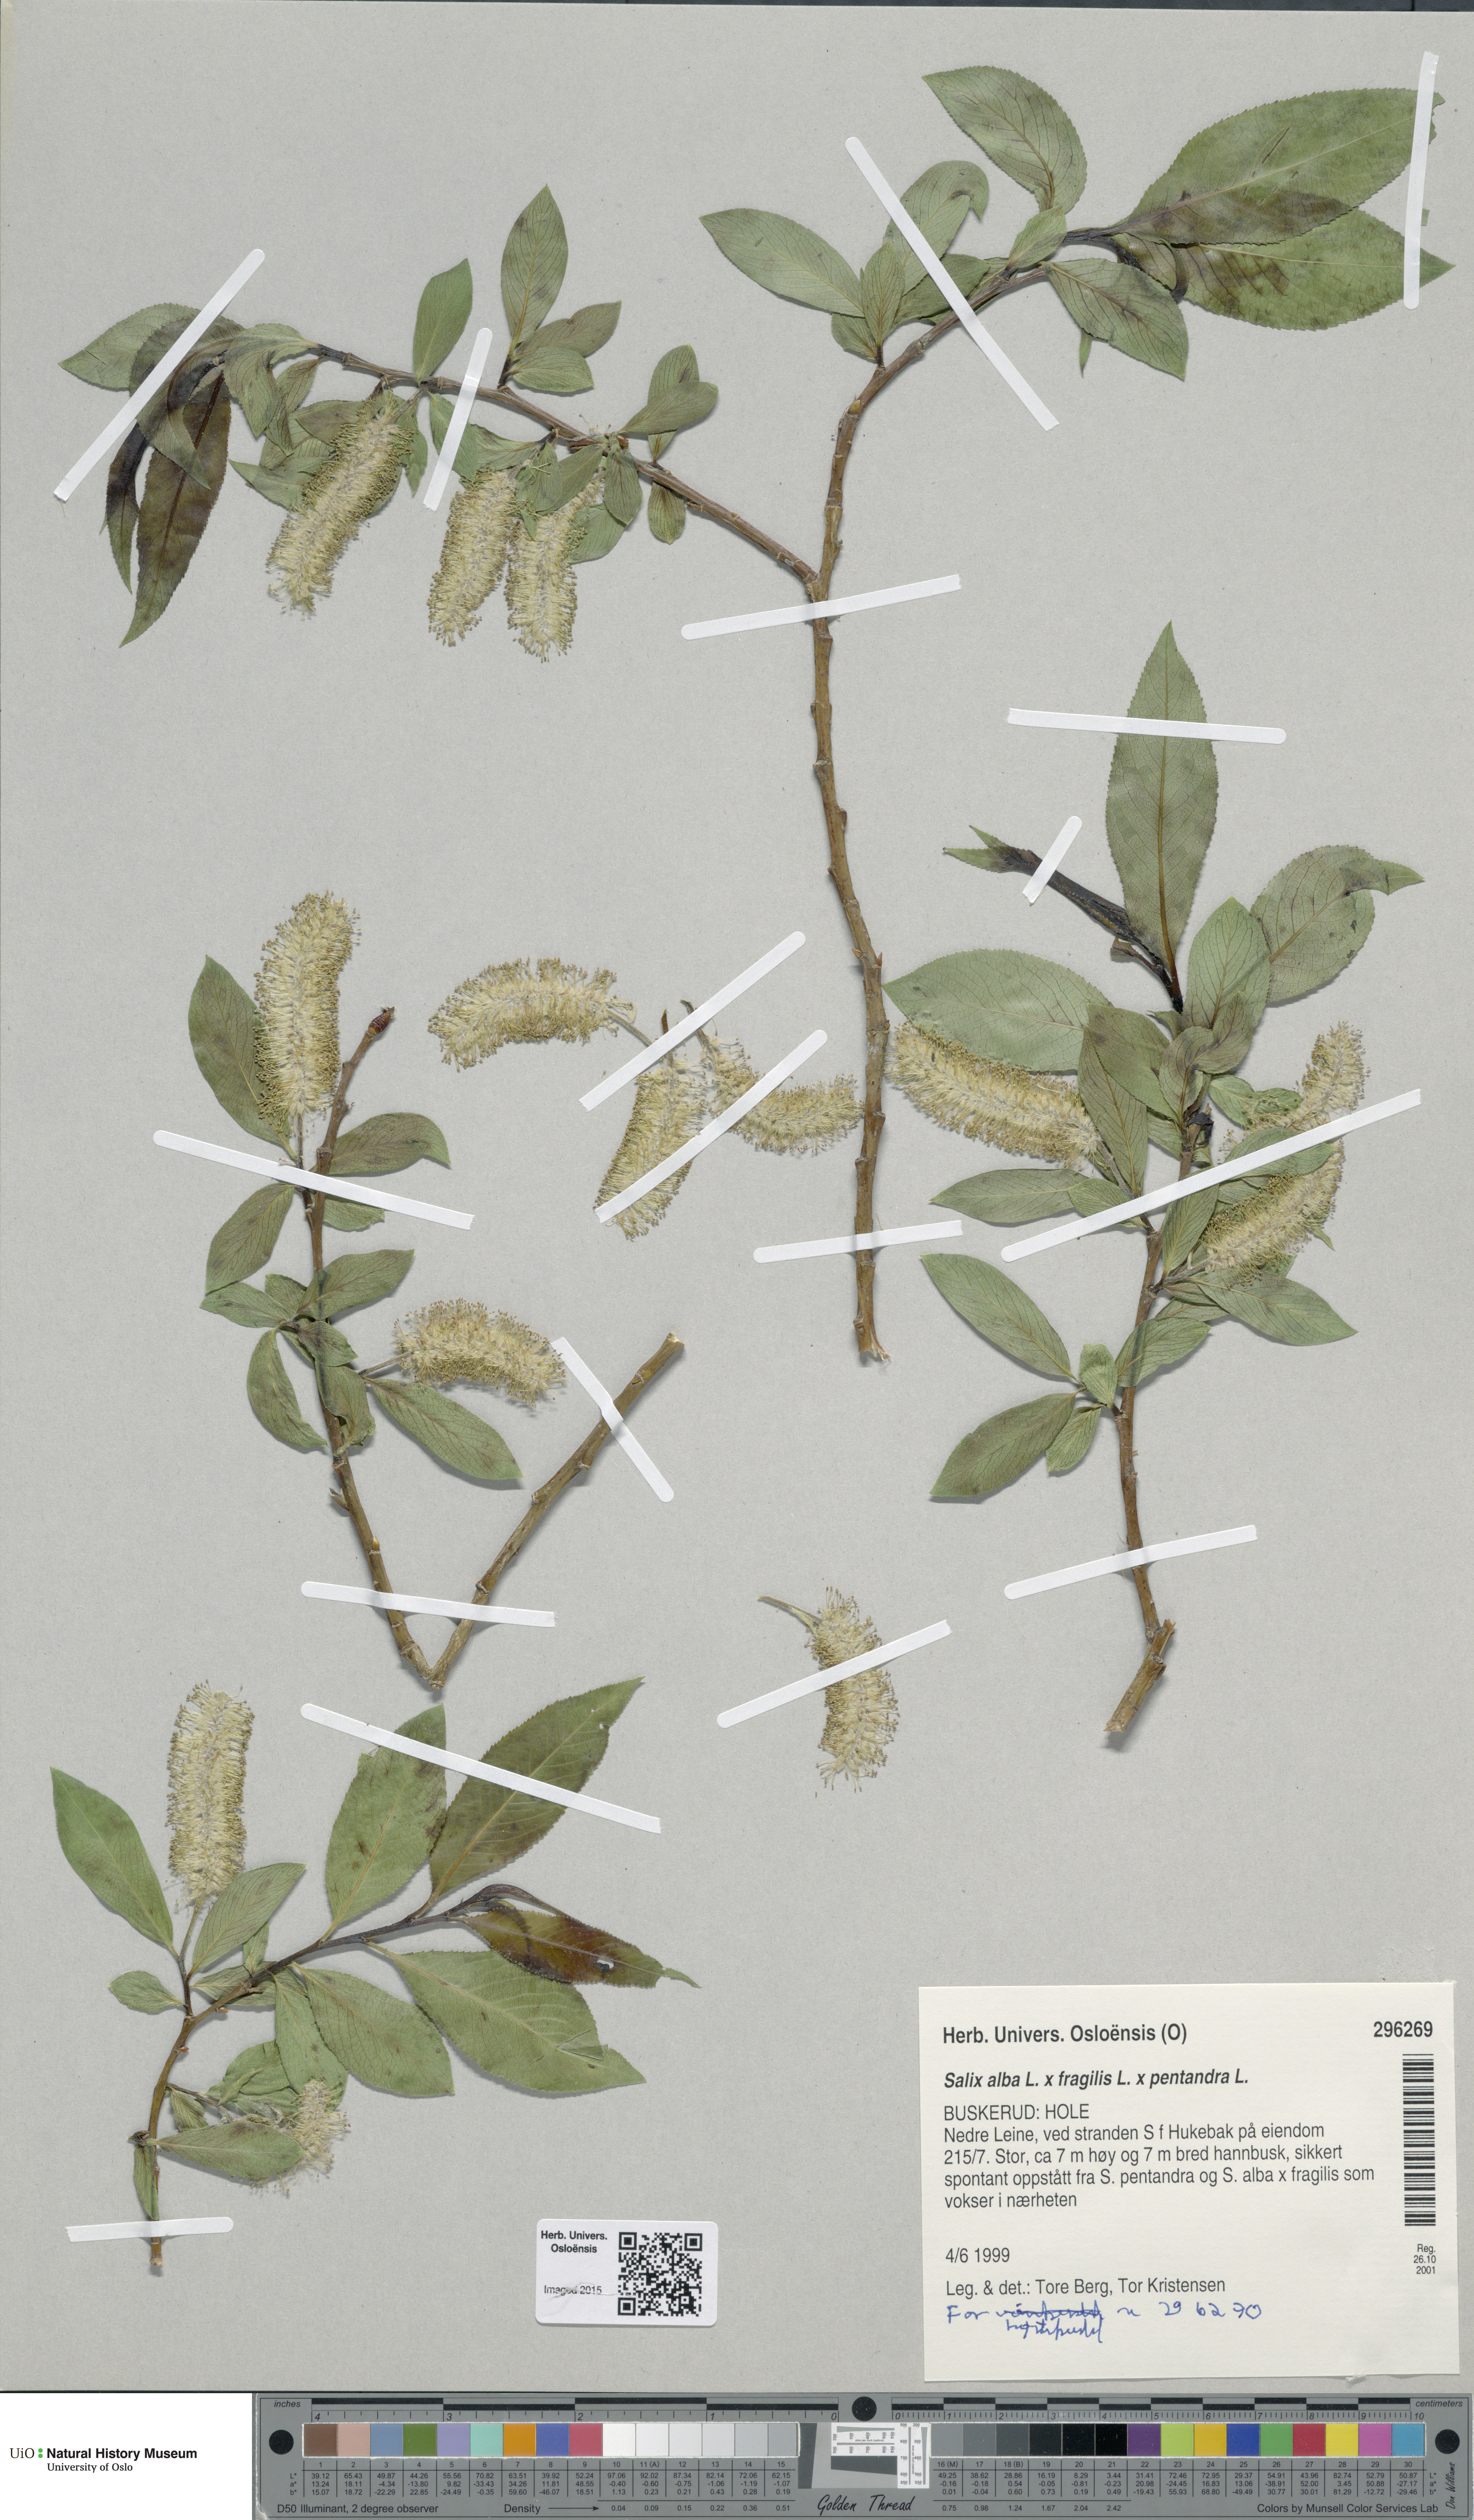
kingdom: Plantae
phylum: Tracheophyta
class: Magnoliopsida
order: Malpighiales
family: Salicaceae
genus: Salix
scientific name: Salix
